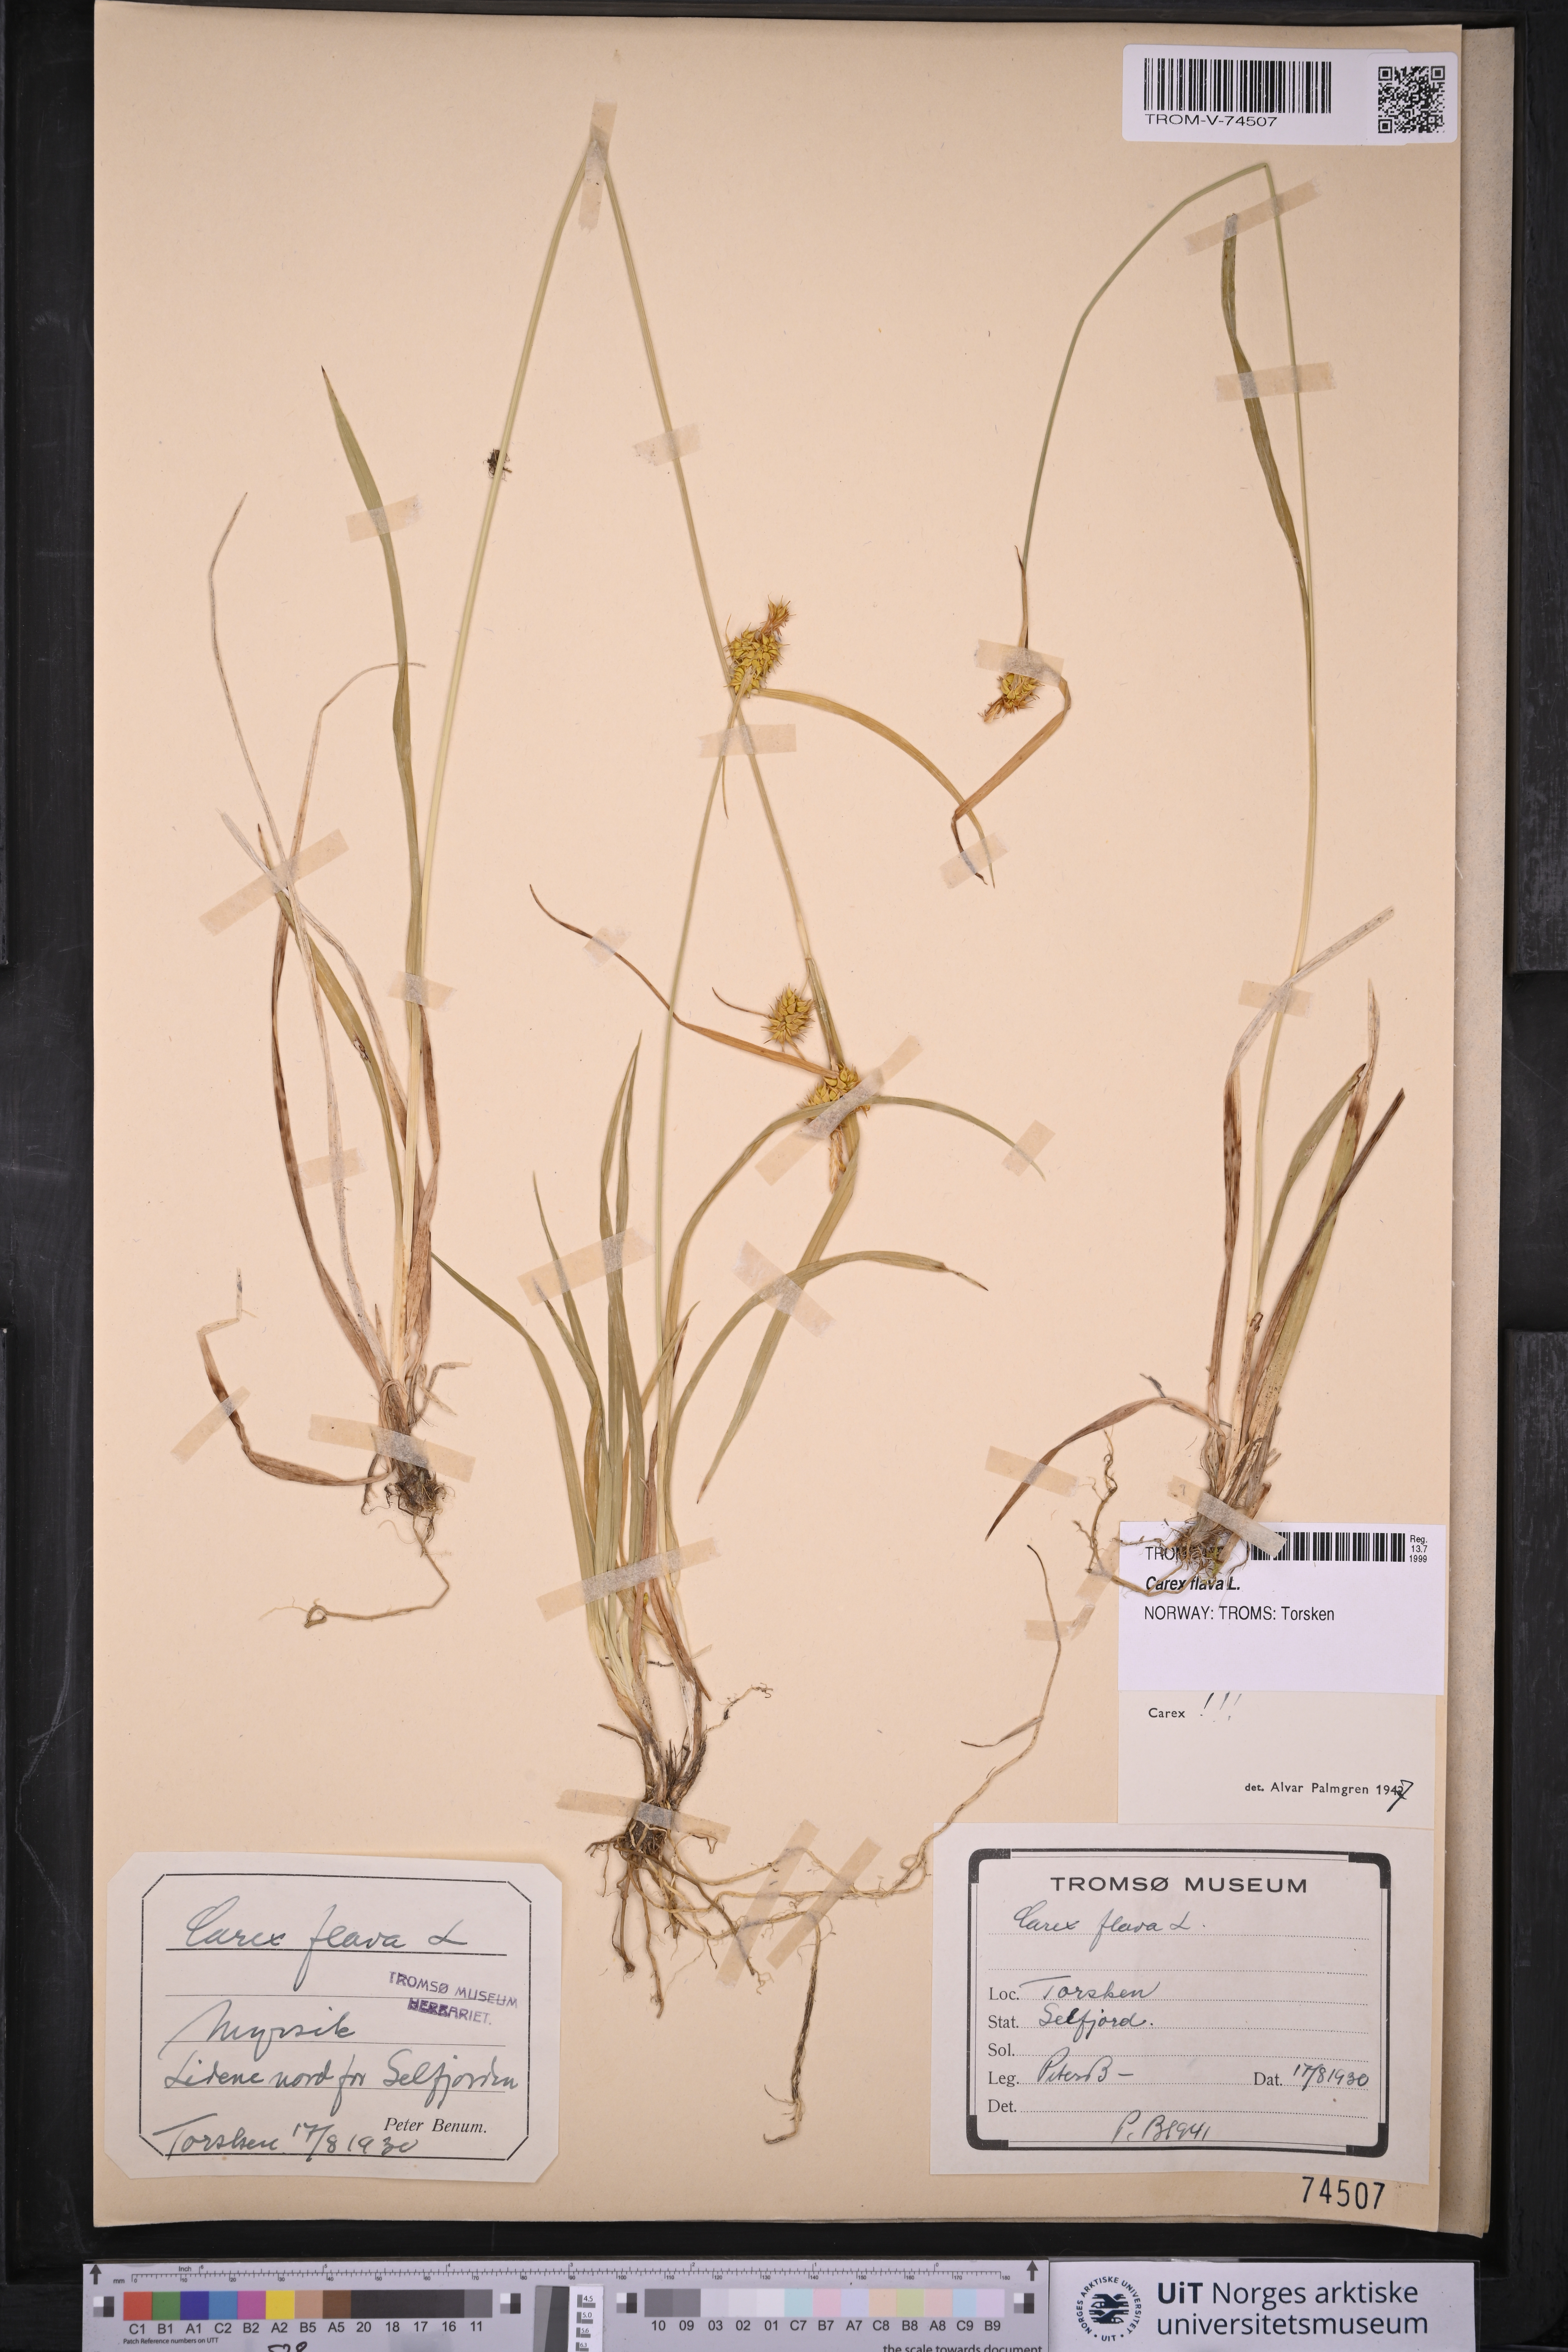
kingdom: Plantae
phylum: Tracheophyta
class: Liliopsida
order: Poales
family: Cyperaceae
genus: Carex
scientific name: Carex flava
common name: Large yellow-sedge
